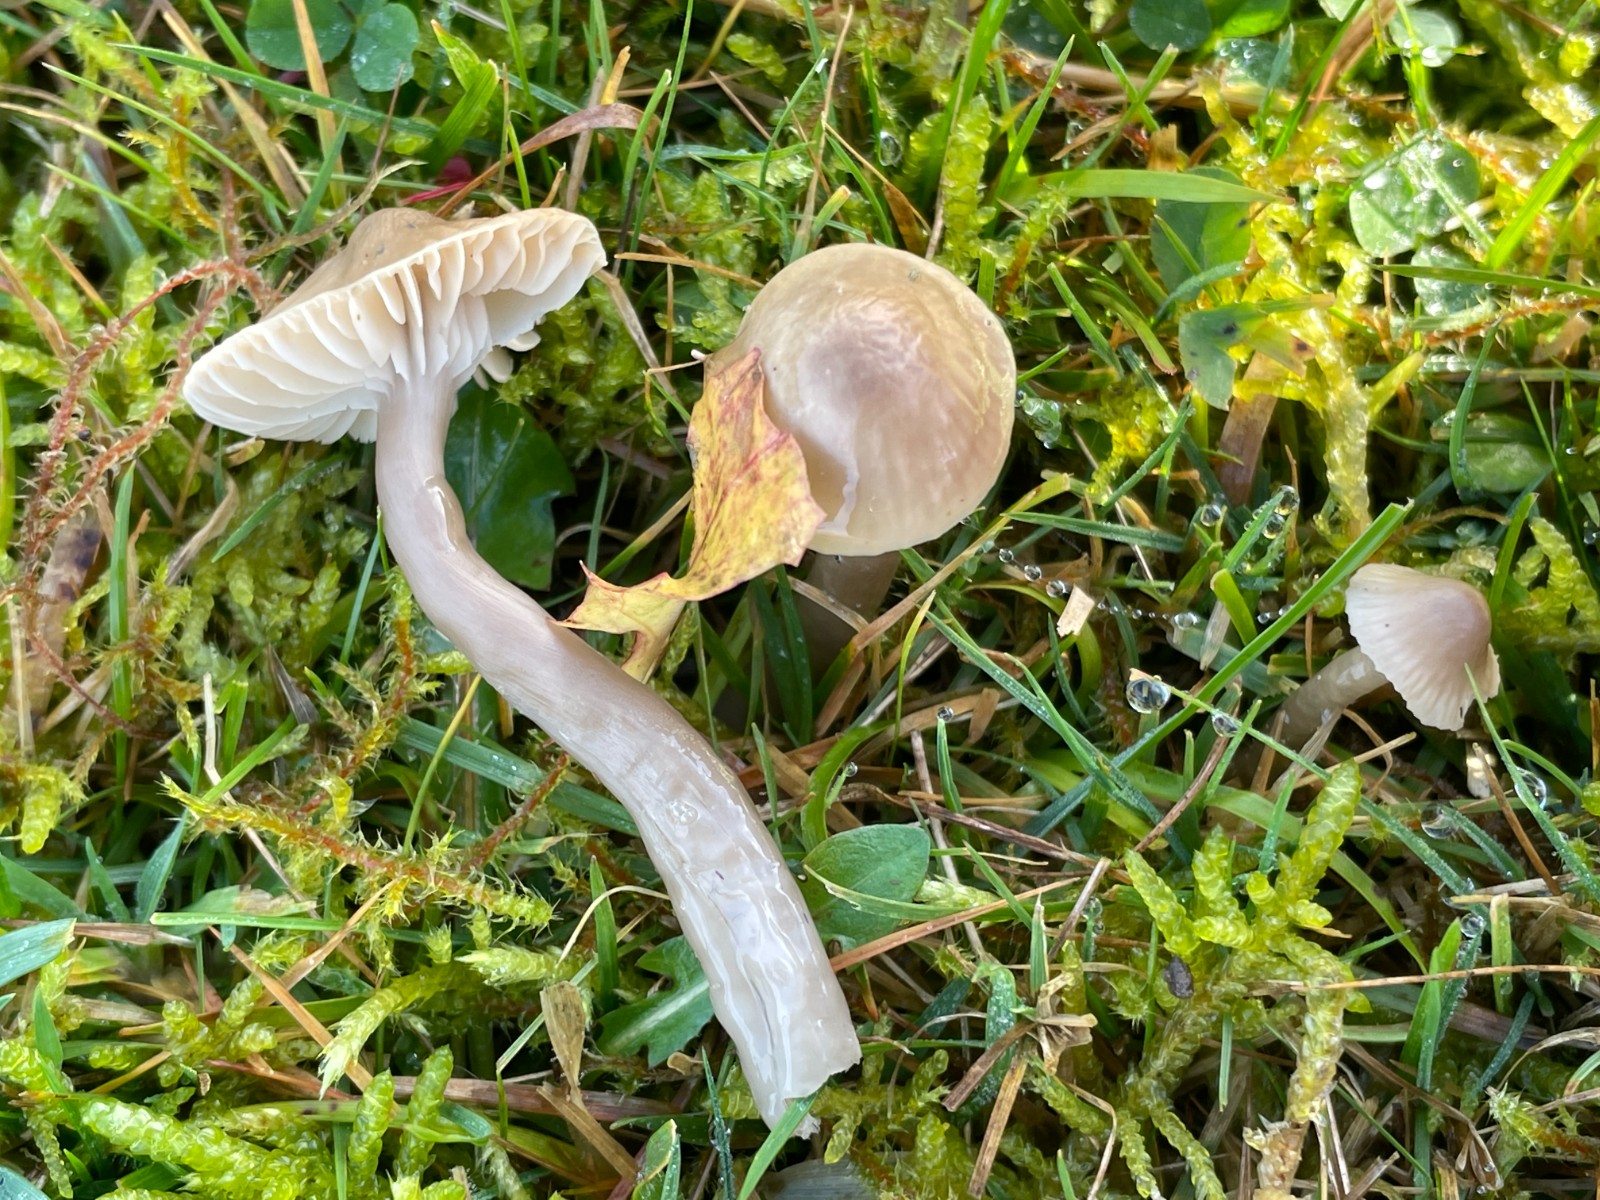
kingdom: Fungi
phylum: Basidiomycota
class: Agaricomycetes
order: Agaricales
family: Hygrophoraceae
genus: Gliophorus
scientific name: Gliophorus irrigatus
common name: slimet vokshat
